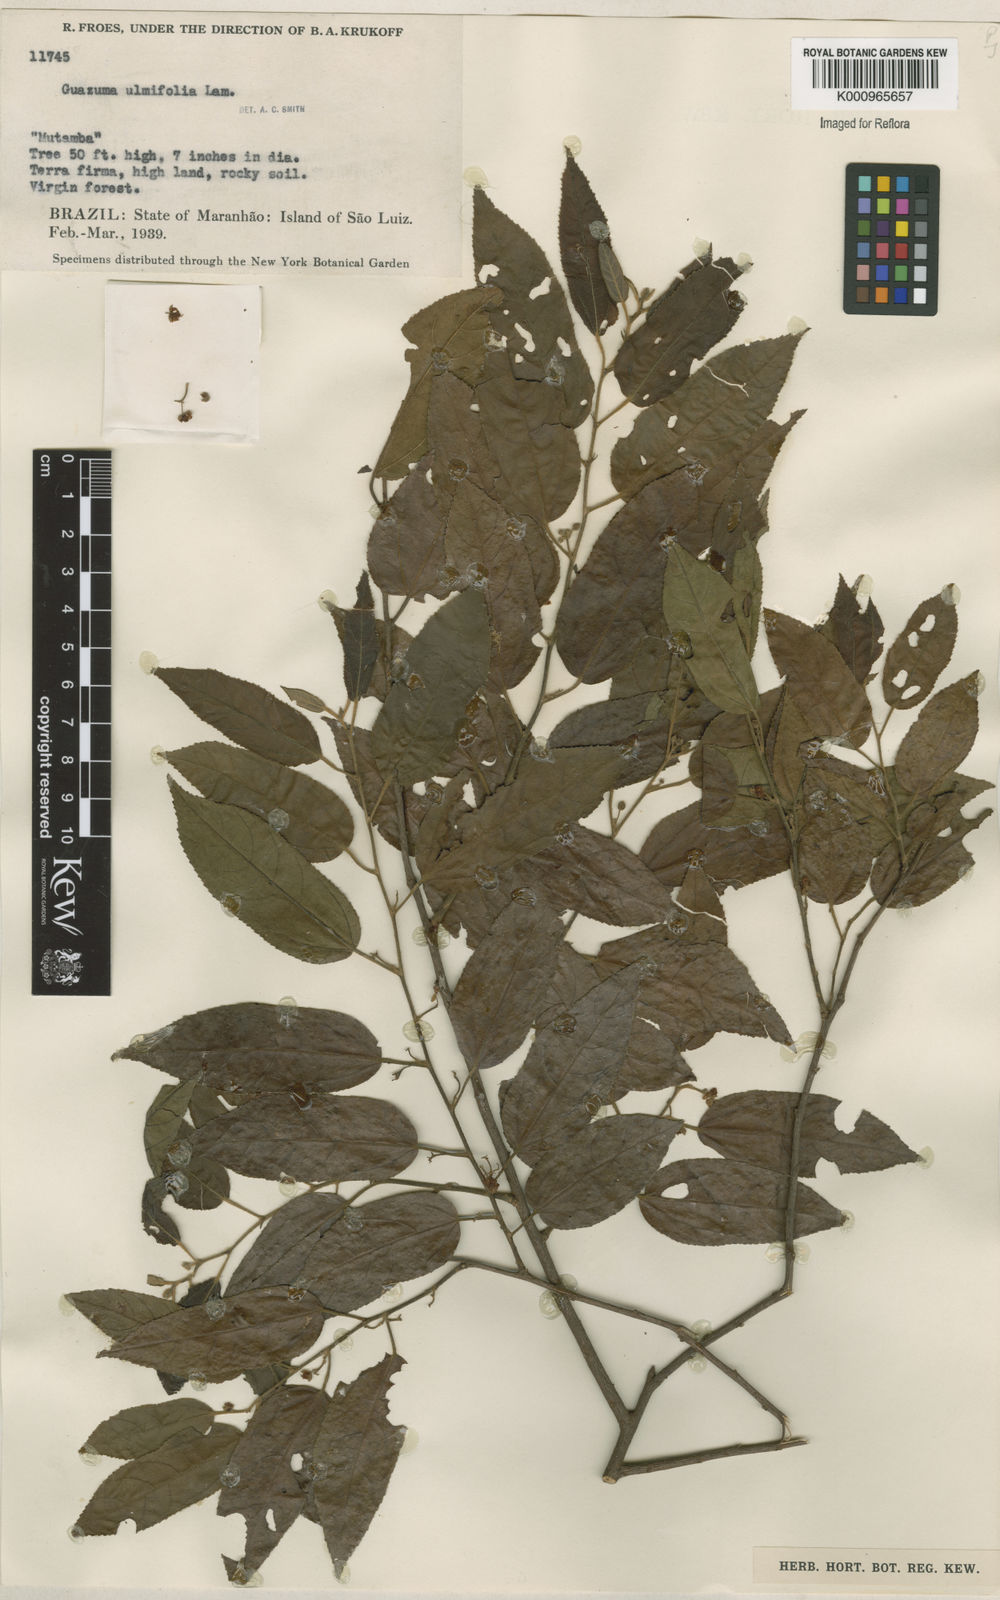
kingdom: Plantae
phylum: Tracheophyta
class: Magnoliopsida
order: Malvales
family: Malvaceae
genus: Guazuma
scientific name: Guazuma ulmifolia
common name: Bastard-cedar
